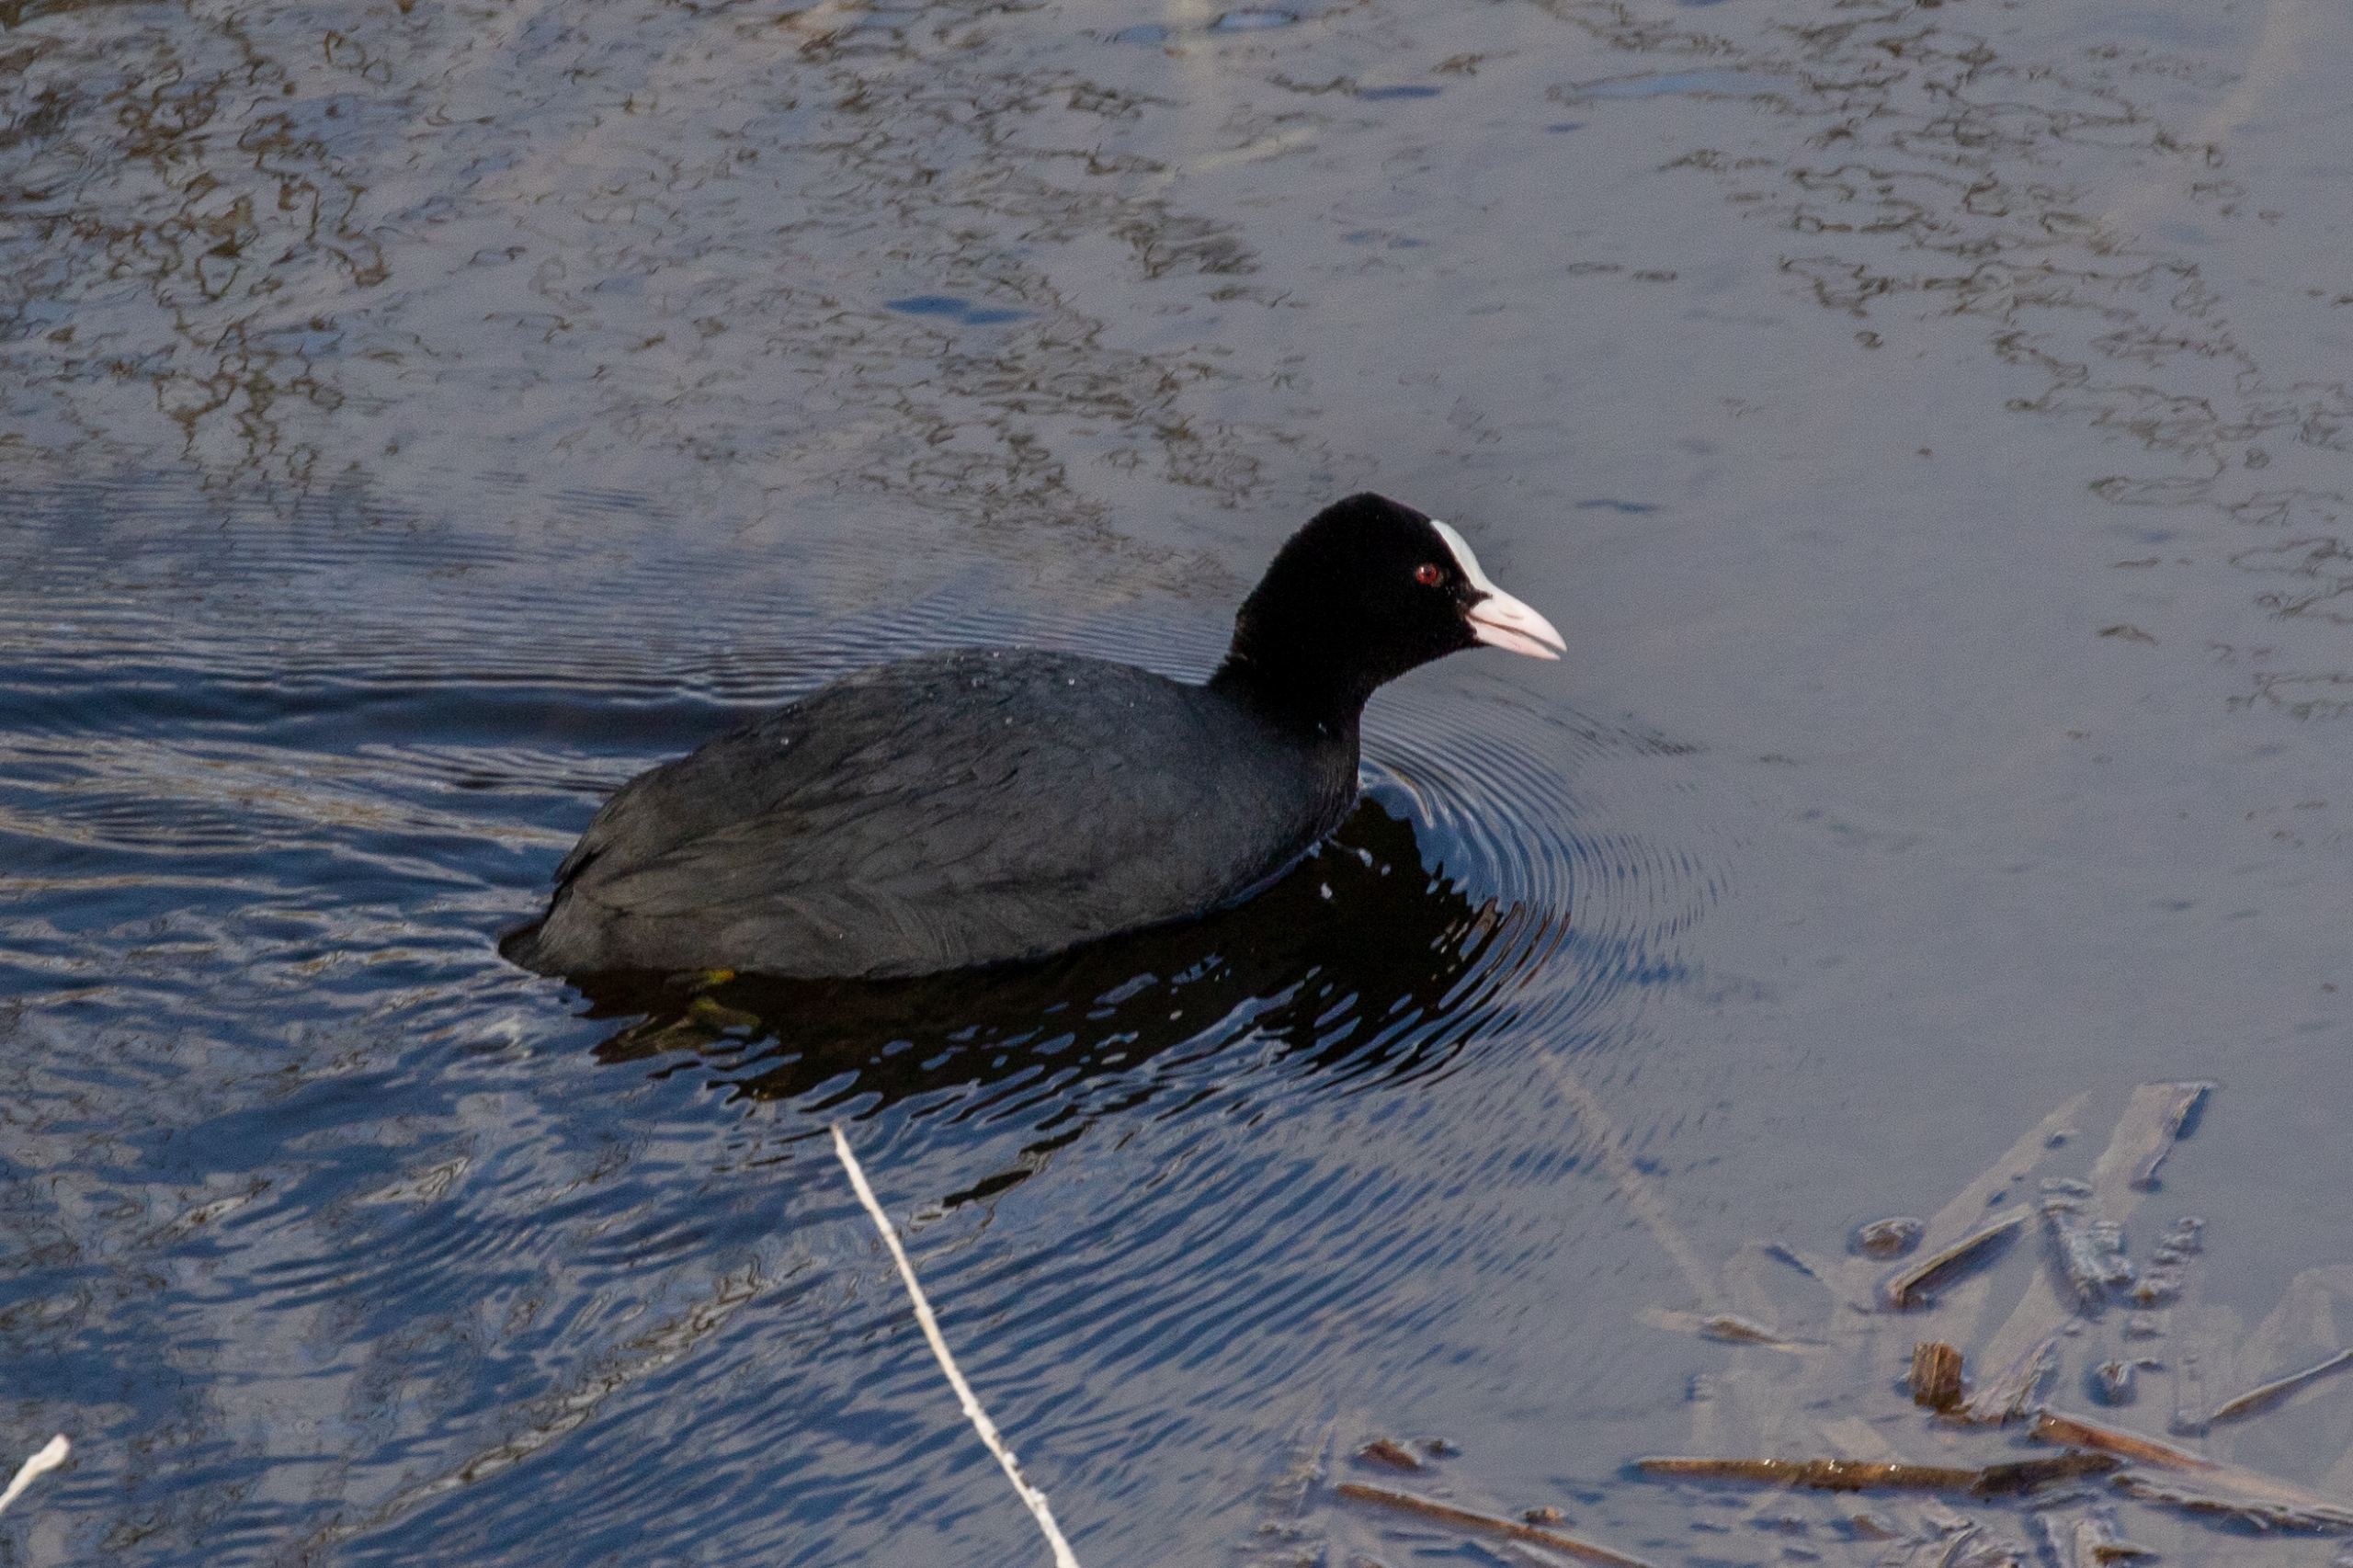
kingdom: Animalia
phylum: Chordata
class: Aves
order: Gruiformes
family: Rallidae
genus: Fulica
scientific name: Fulica atra
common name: Blishøne
